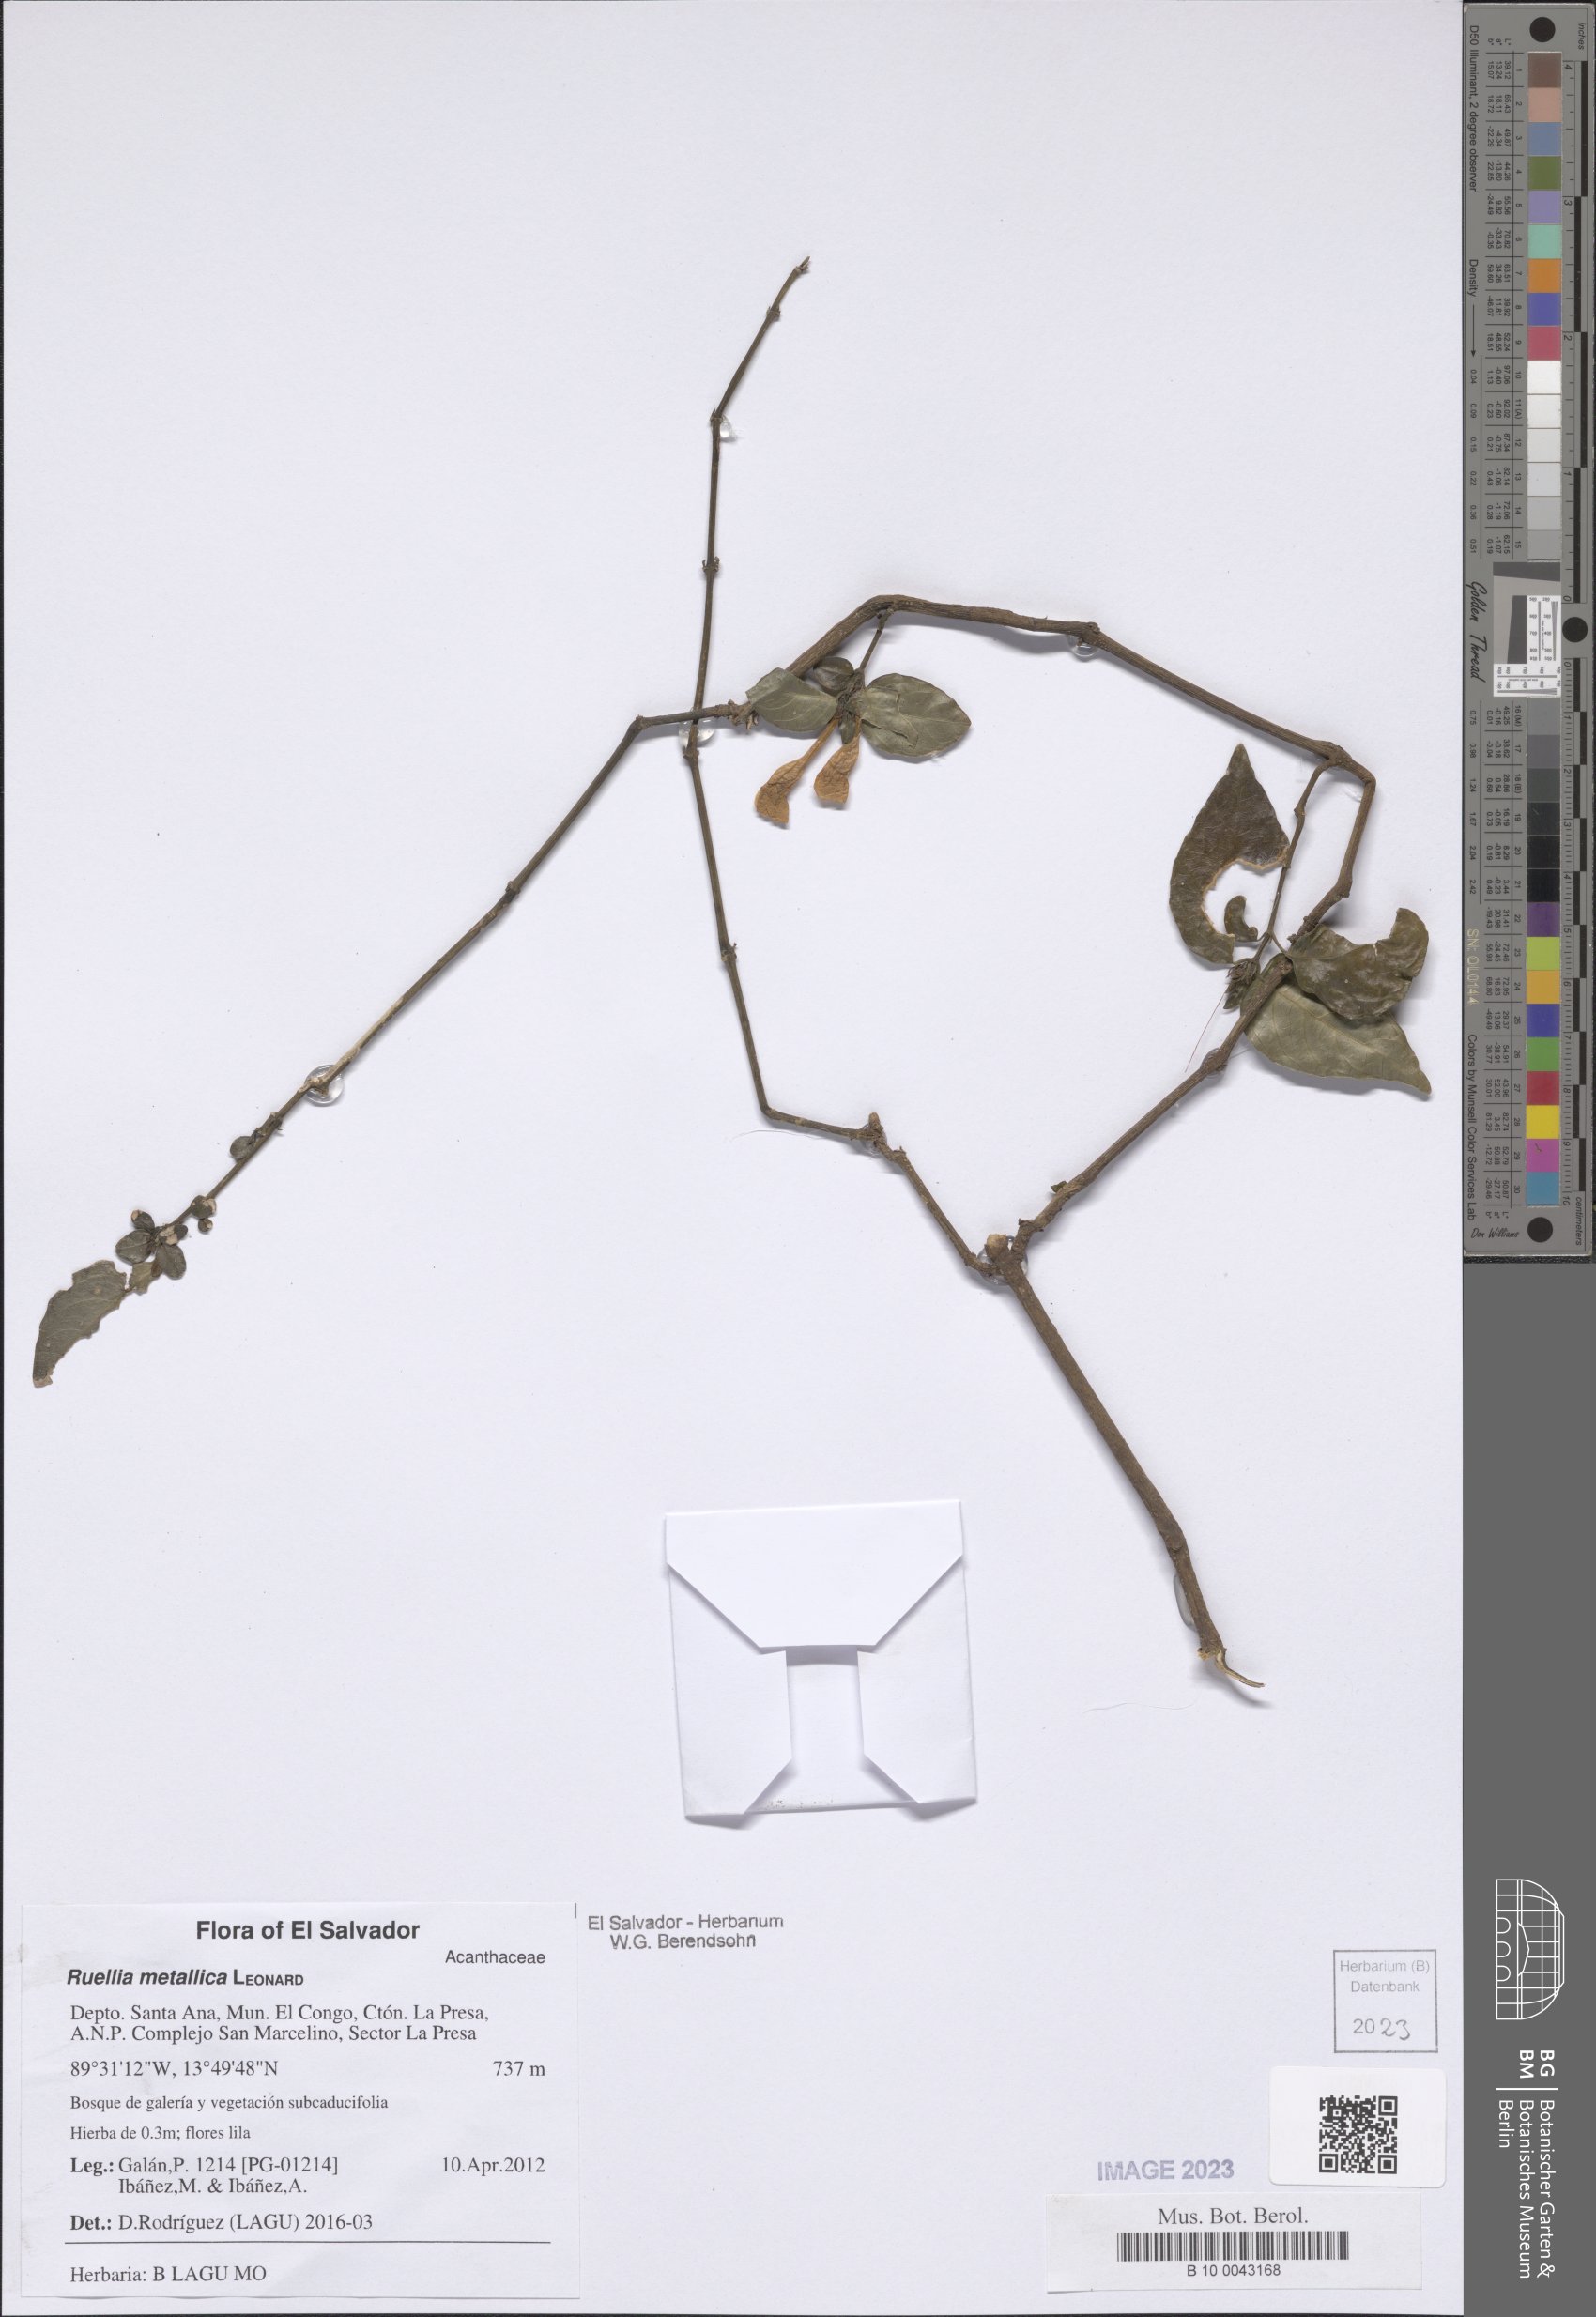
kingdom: Plantae
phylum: Tracheophyta
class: Magnoliopsida
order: Lamiales
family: Acanthaceae
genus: Ruellia
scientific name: Ruellia metallica
